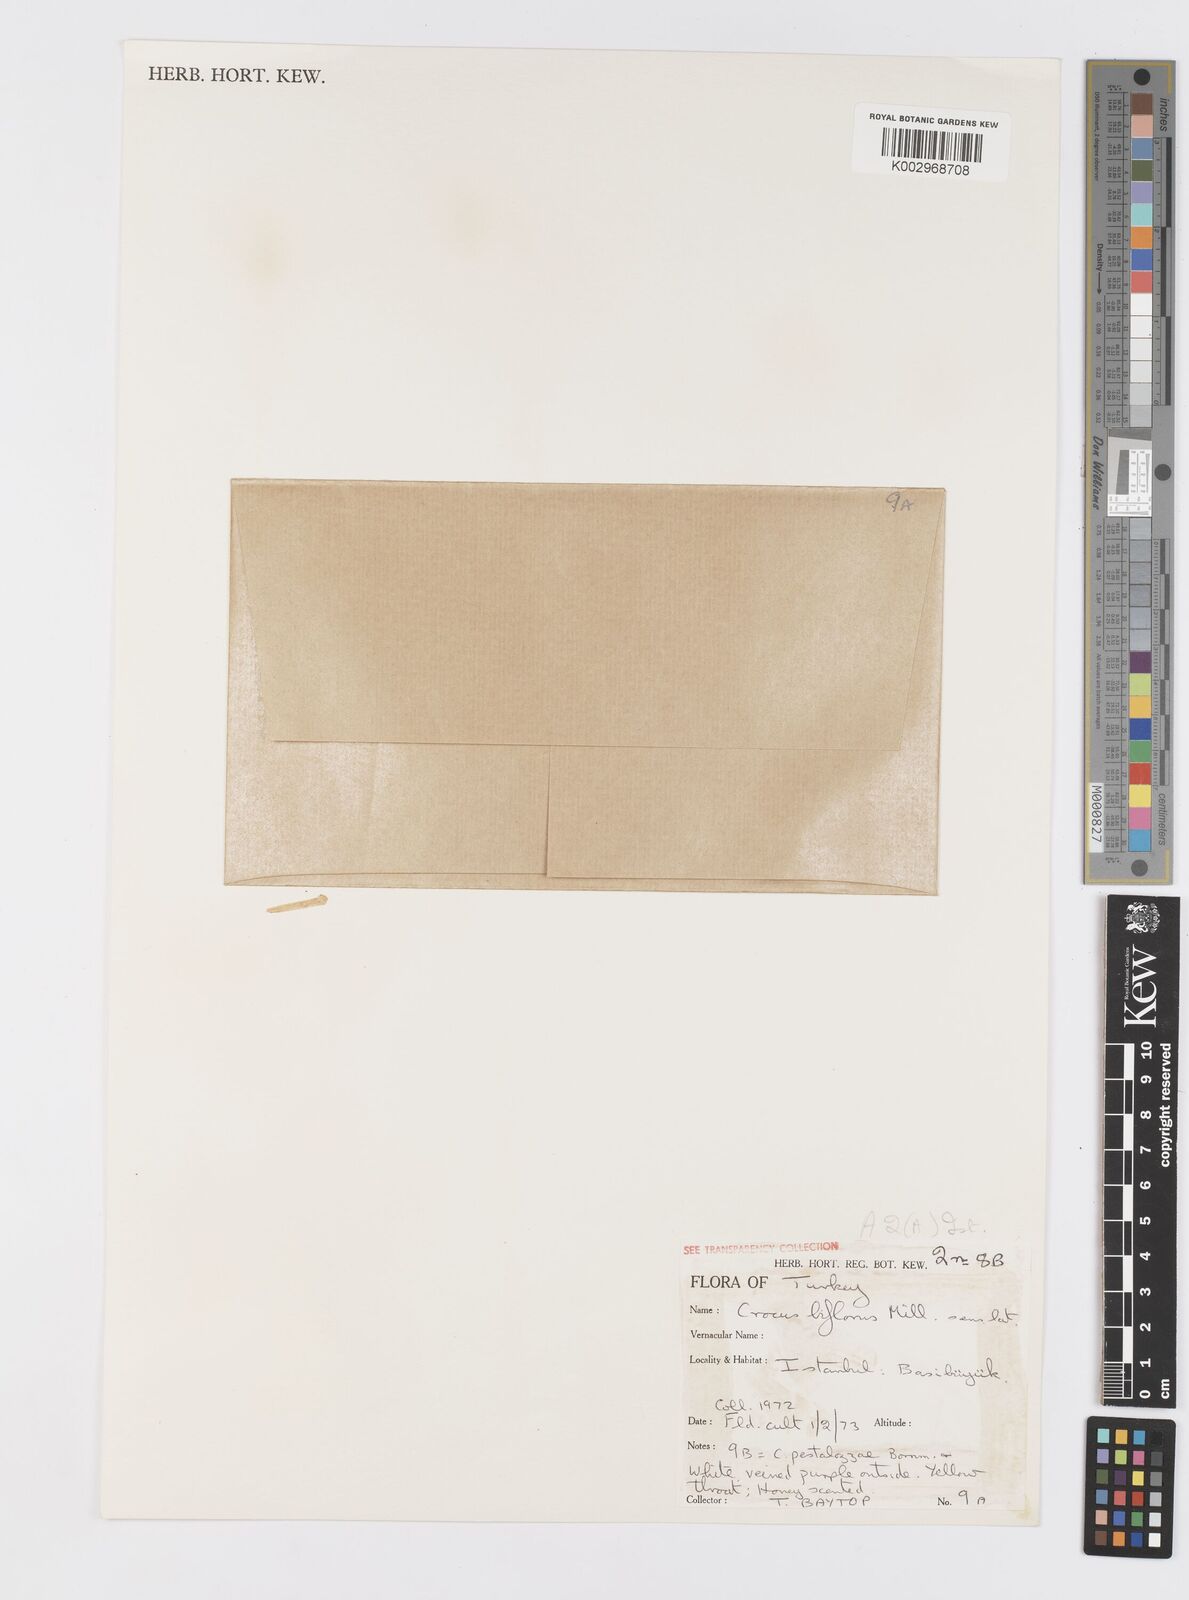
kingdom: Plantae
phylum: Tracheophyta
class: Liliopsida
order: Asparagales
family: Iridaceae
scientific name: Iridaceae
